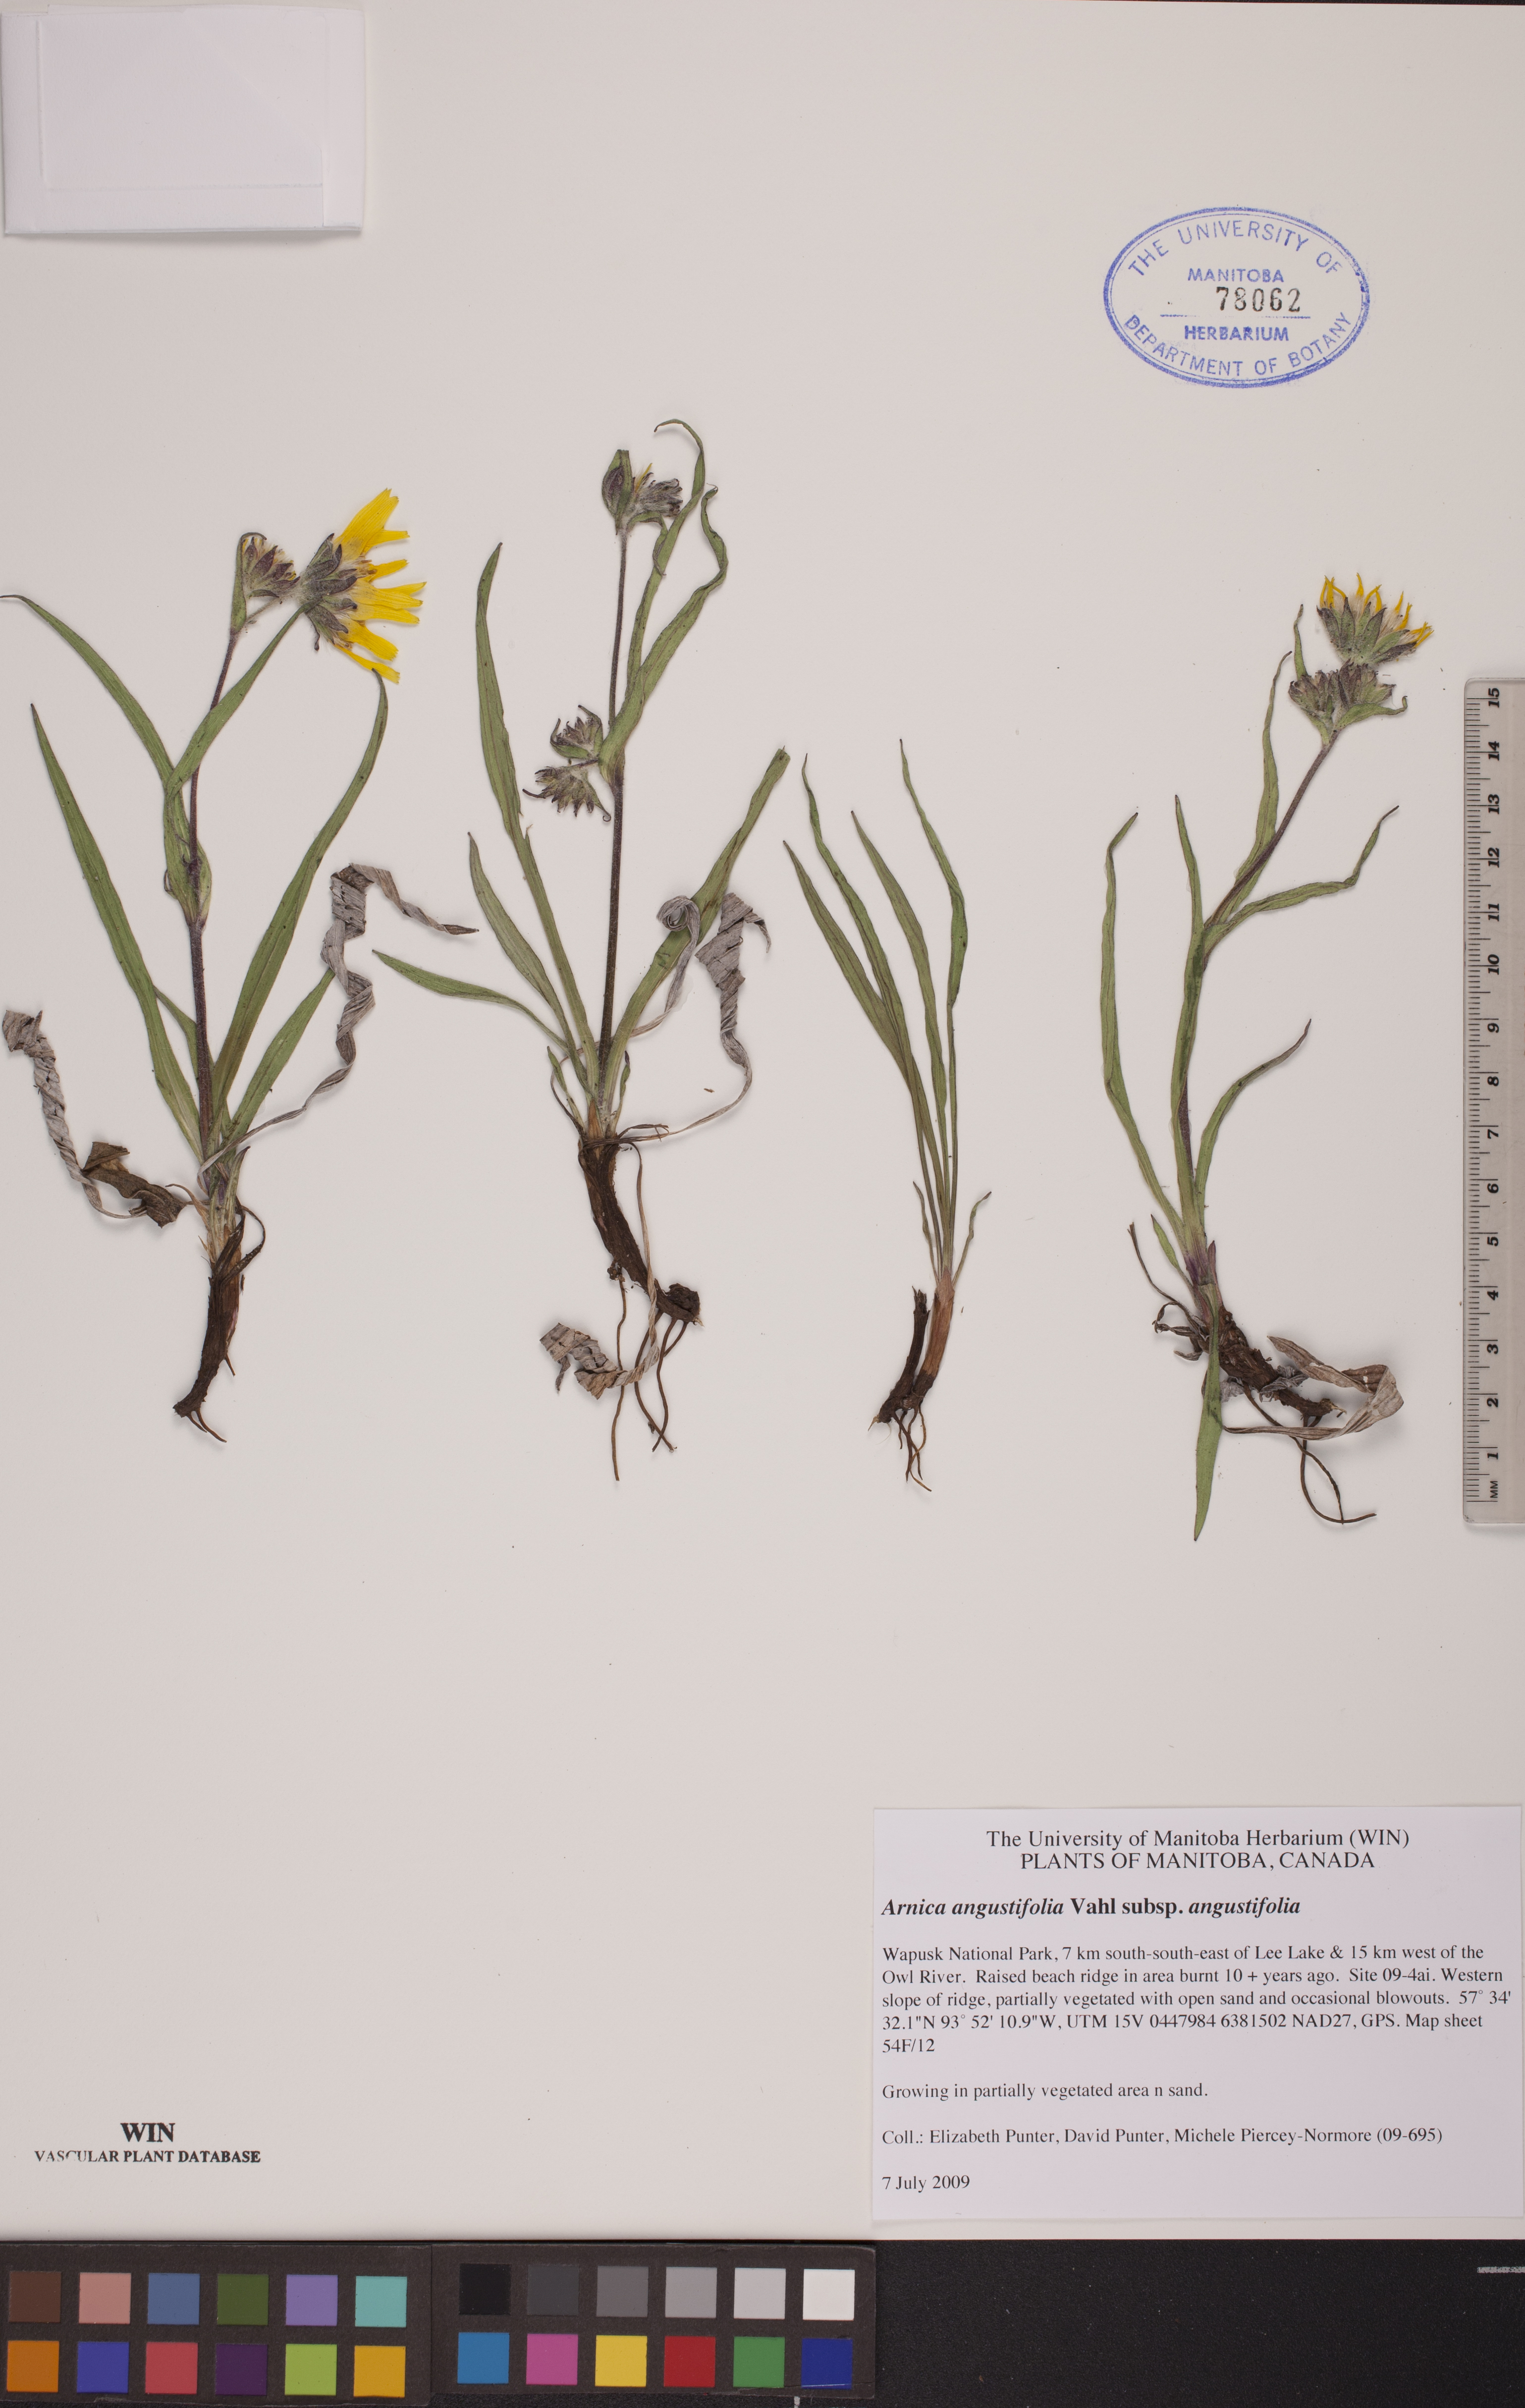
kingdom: Plantae
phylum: Tracheophyta
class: Magnoliopsida
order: Asterales
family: Asteraceae
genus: Arnica
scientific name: Arnica angustifolia
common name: Arctic arnica
